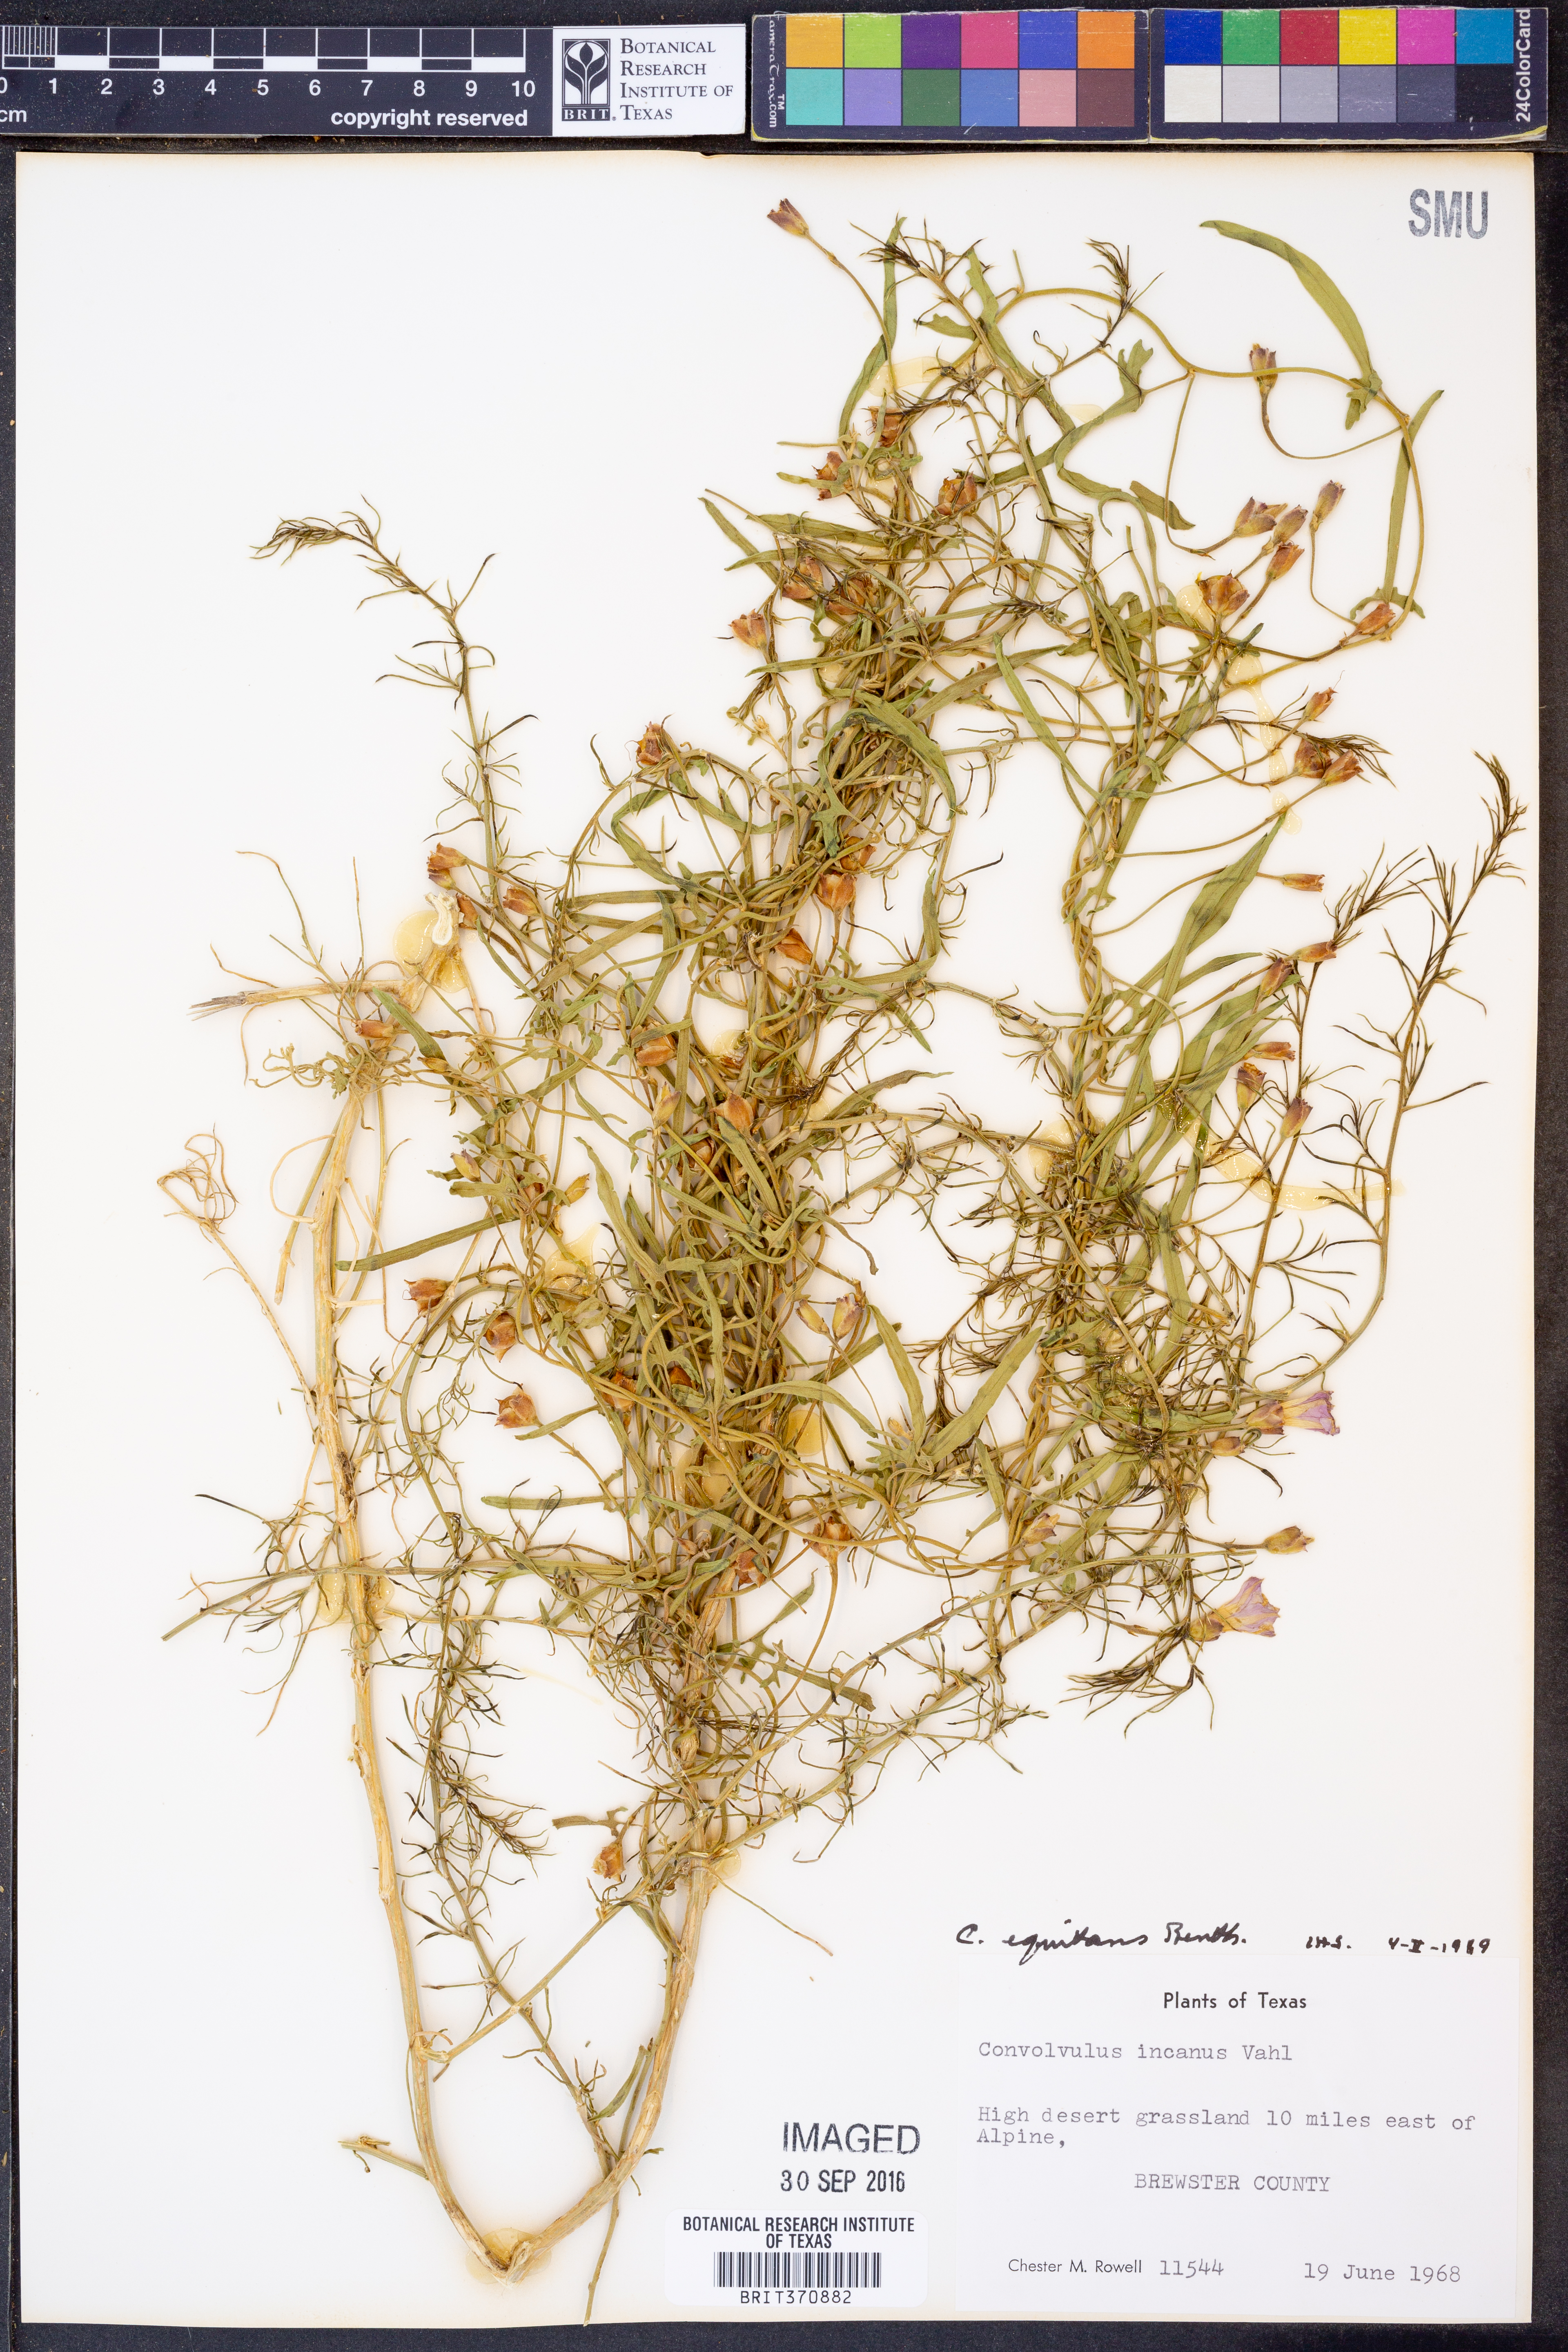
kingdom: Plantae
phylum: Tracheophyta
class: Magnoliopsida
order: Solanales
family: Convolvulaceae
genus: Convolvulus
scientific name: Convolvulus equitans
